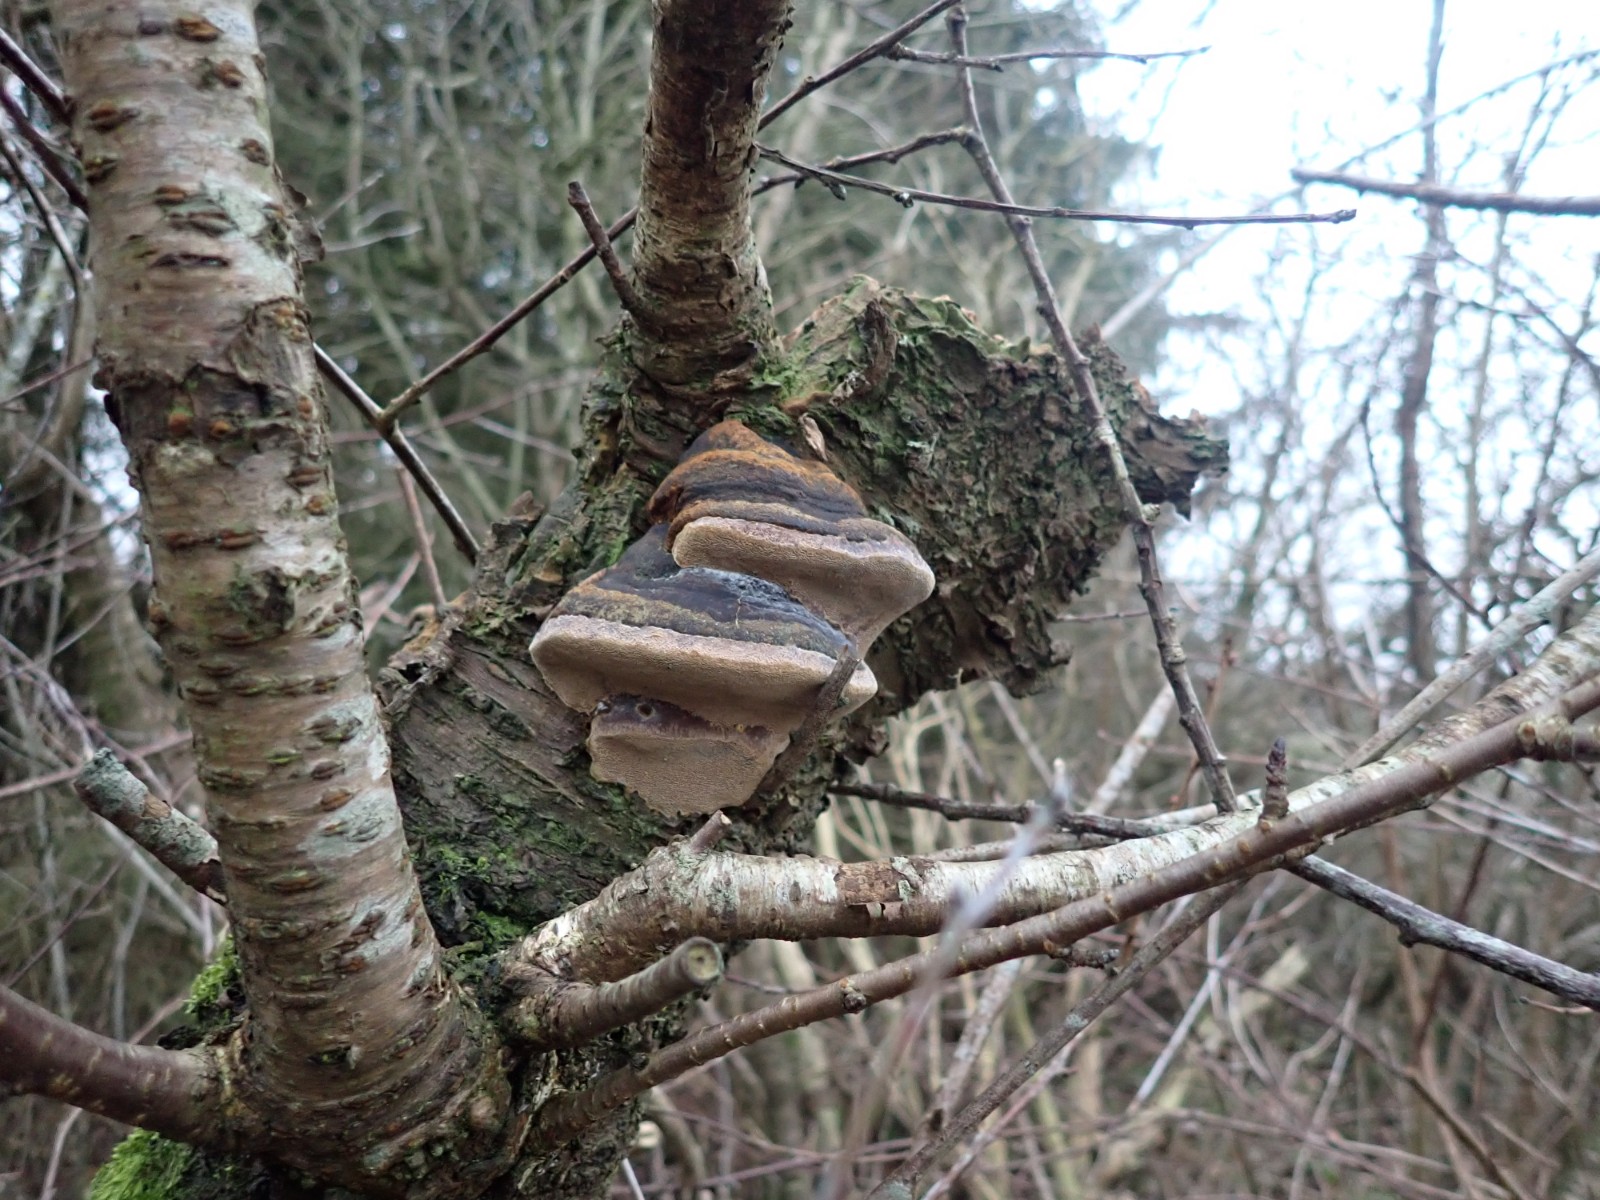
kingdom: Fungi
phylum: Basidiomycota
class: Agaricomycetes
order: Hymenochaetales
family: Hymenochaetaceae
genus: Phellinus
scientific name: Phellinus pomaceus
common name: blomme-ildporesvamp
